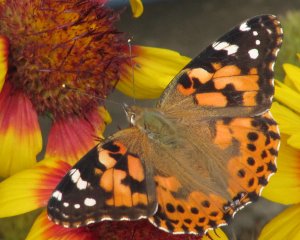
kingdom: Animalia
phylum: Arthropoda
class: Insecta
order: Lepidoptera
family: Nymphalidae
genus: Vanessa
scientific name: Vanessa cardui
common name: Painted Lady
